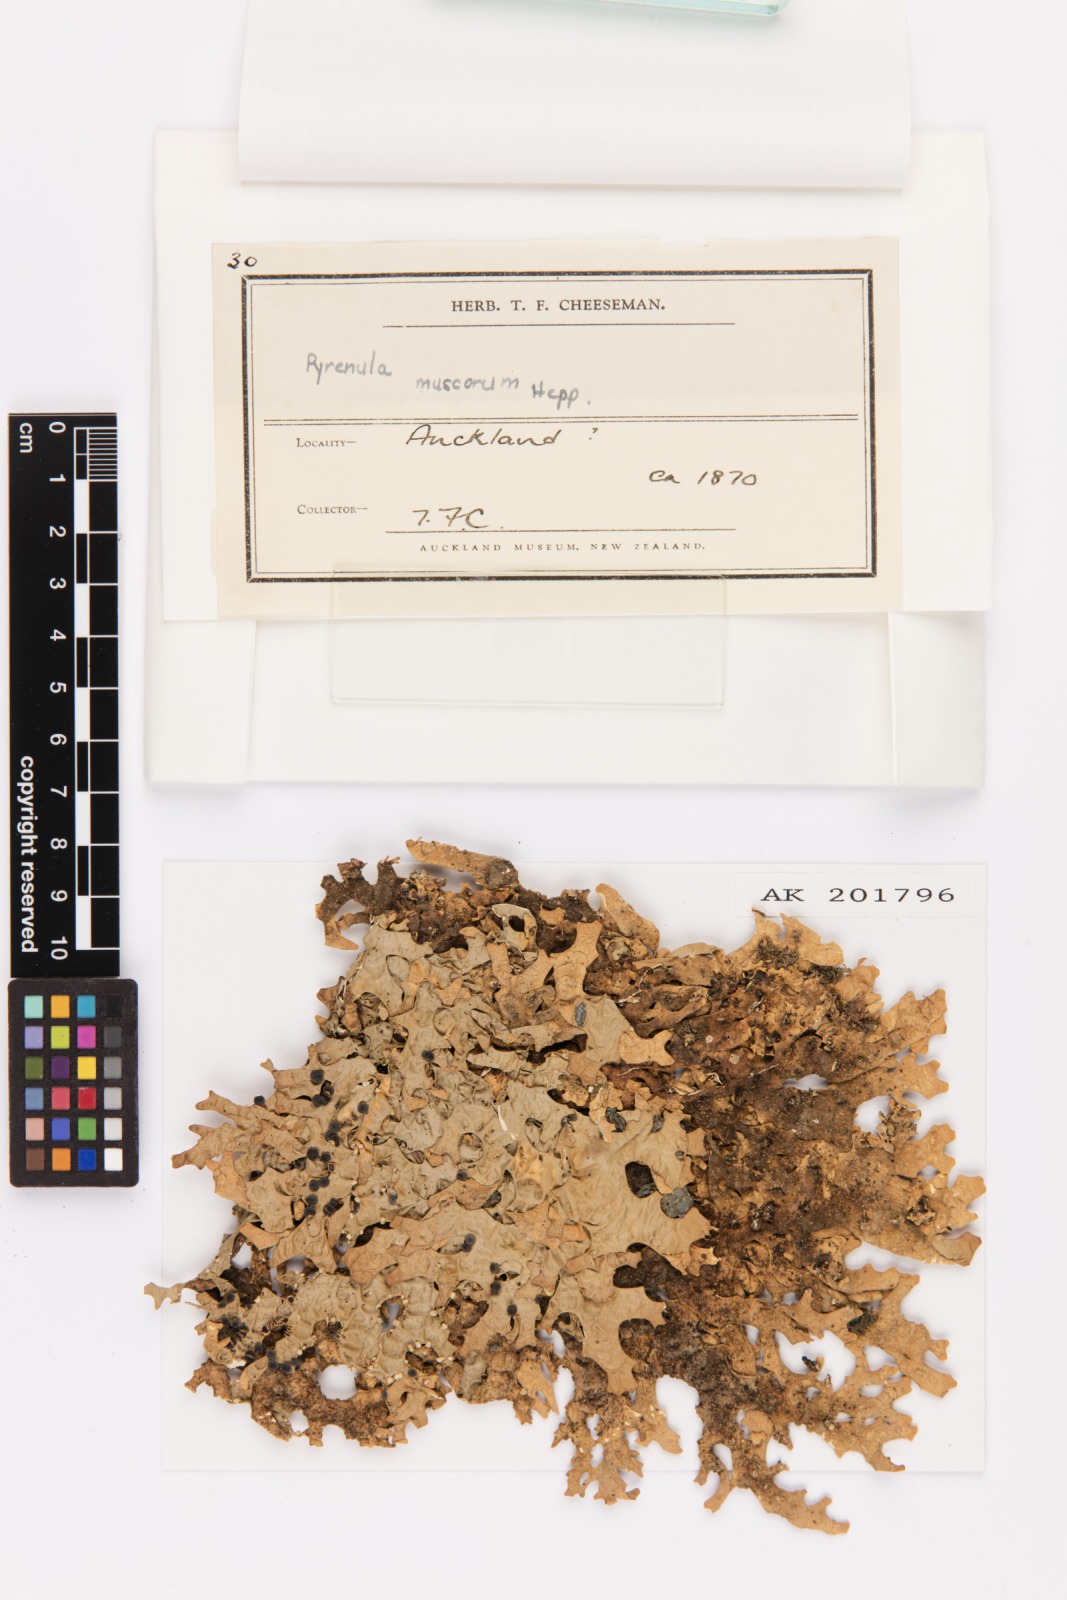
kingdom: Fungi
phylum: Ascomycota
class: Lecanoromycetes
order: Peltigerales
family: Lobariaceae
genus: Pseudocyphellaria
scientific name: Pseudocyphellaria carpoloma
